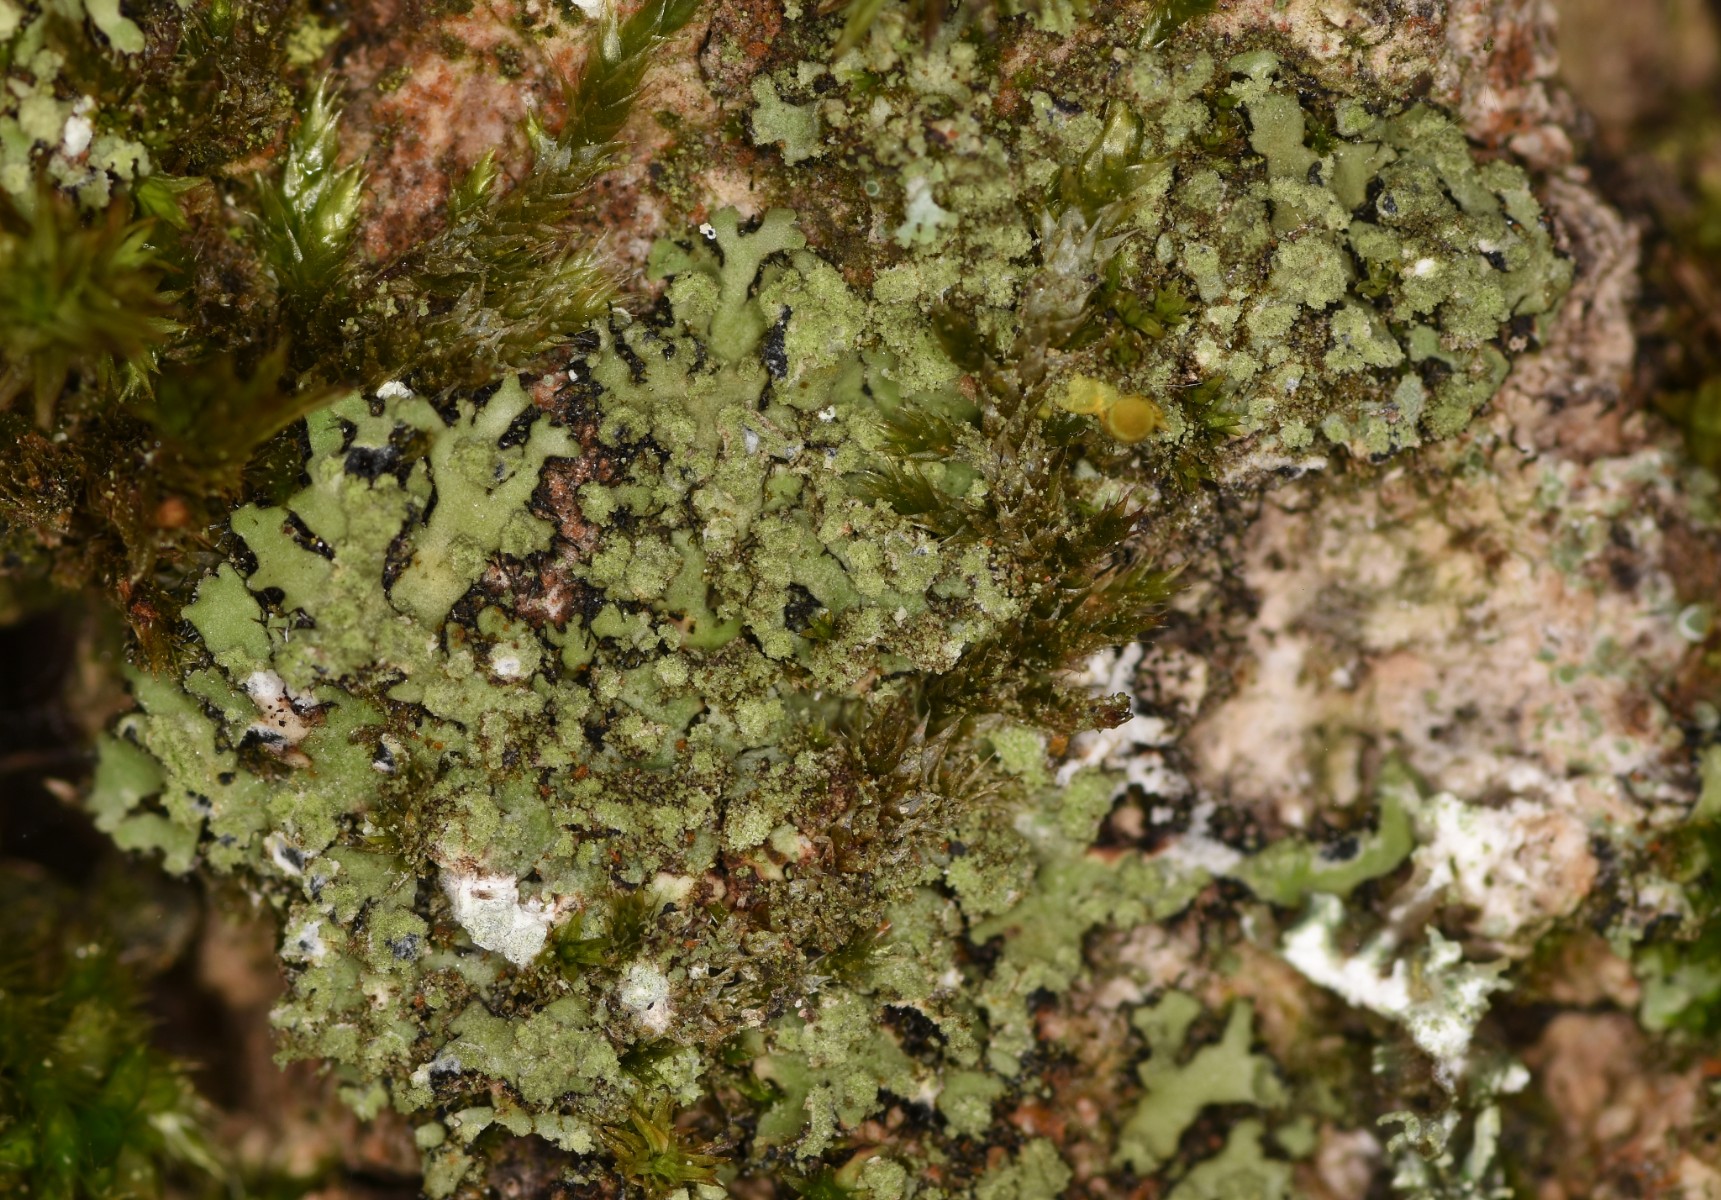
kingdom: Fungi
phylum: Ascomycota
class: Lecanoromycetes
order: Caliciales
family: Physciaceae
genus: Phaeophyscia
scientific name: Phaeophyscia orbicularis
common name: grågrøn rosetlav
